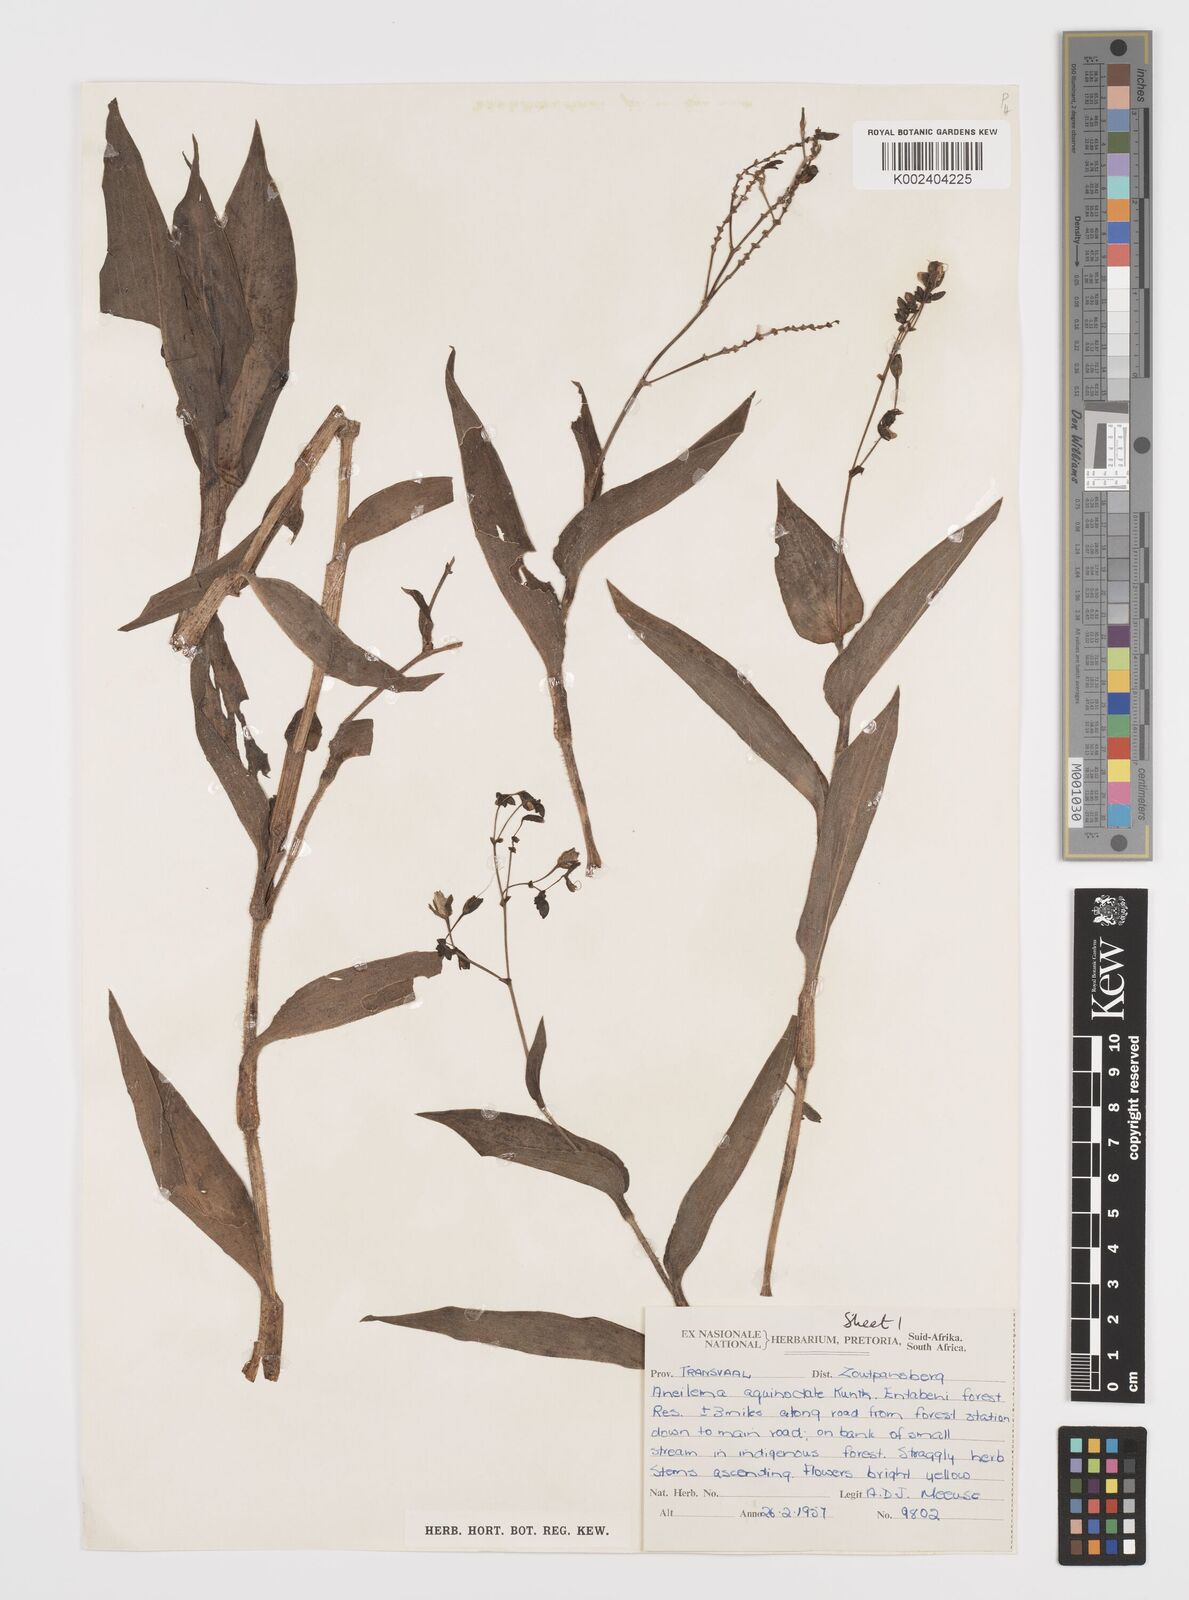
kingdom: Plantae
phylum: Tracheophyta
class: Liliopsida
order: Commelinales
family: Commelinaceae
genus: Aneilema
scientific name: Aneilema aequinoctiale
